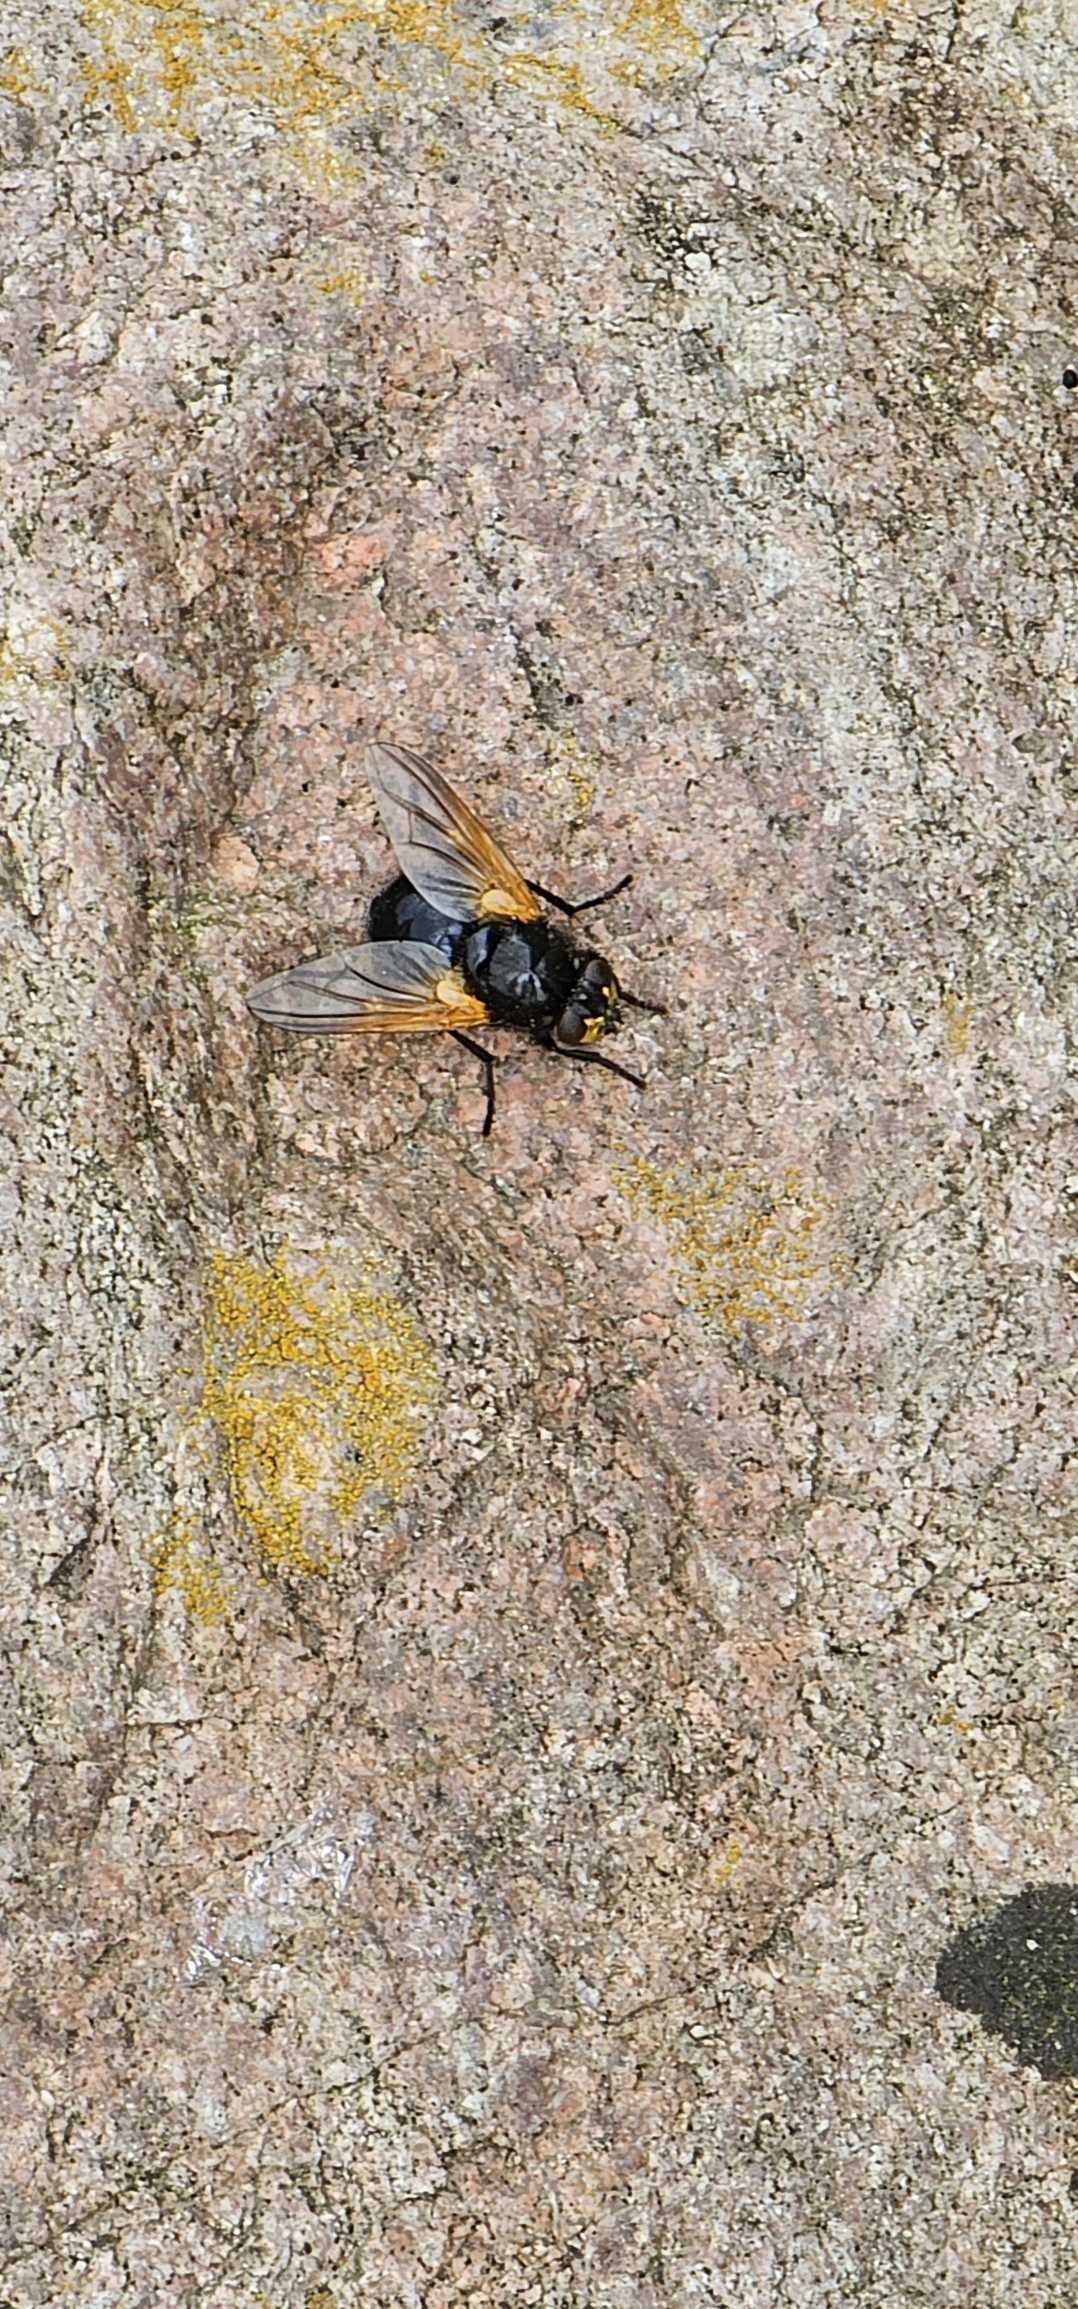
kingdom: Animalia
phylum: Arthropoda
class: Insecta
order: Diptera
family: Muscidae
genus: Mesembrina
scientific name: Mesembrina meridiana
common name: Gulvinget flue
